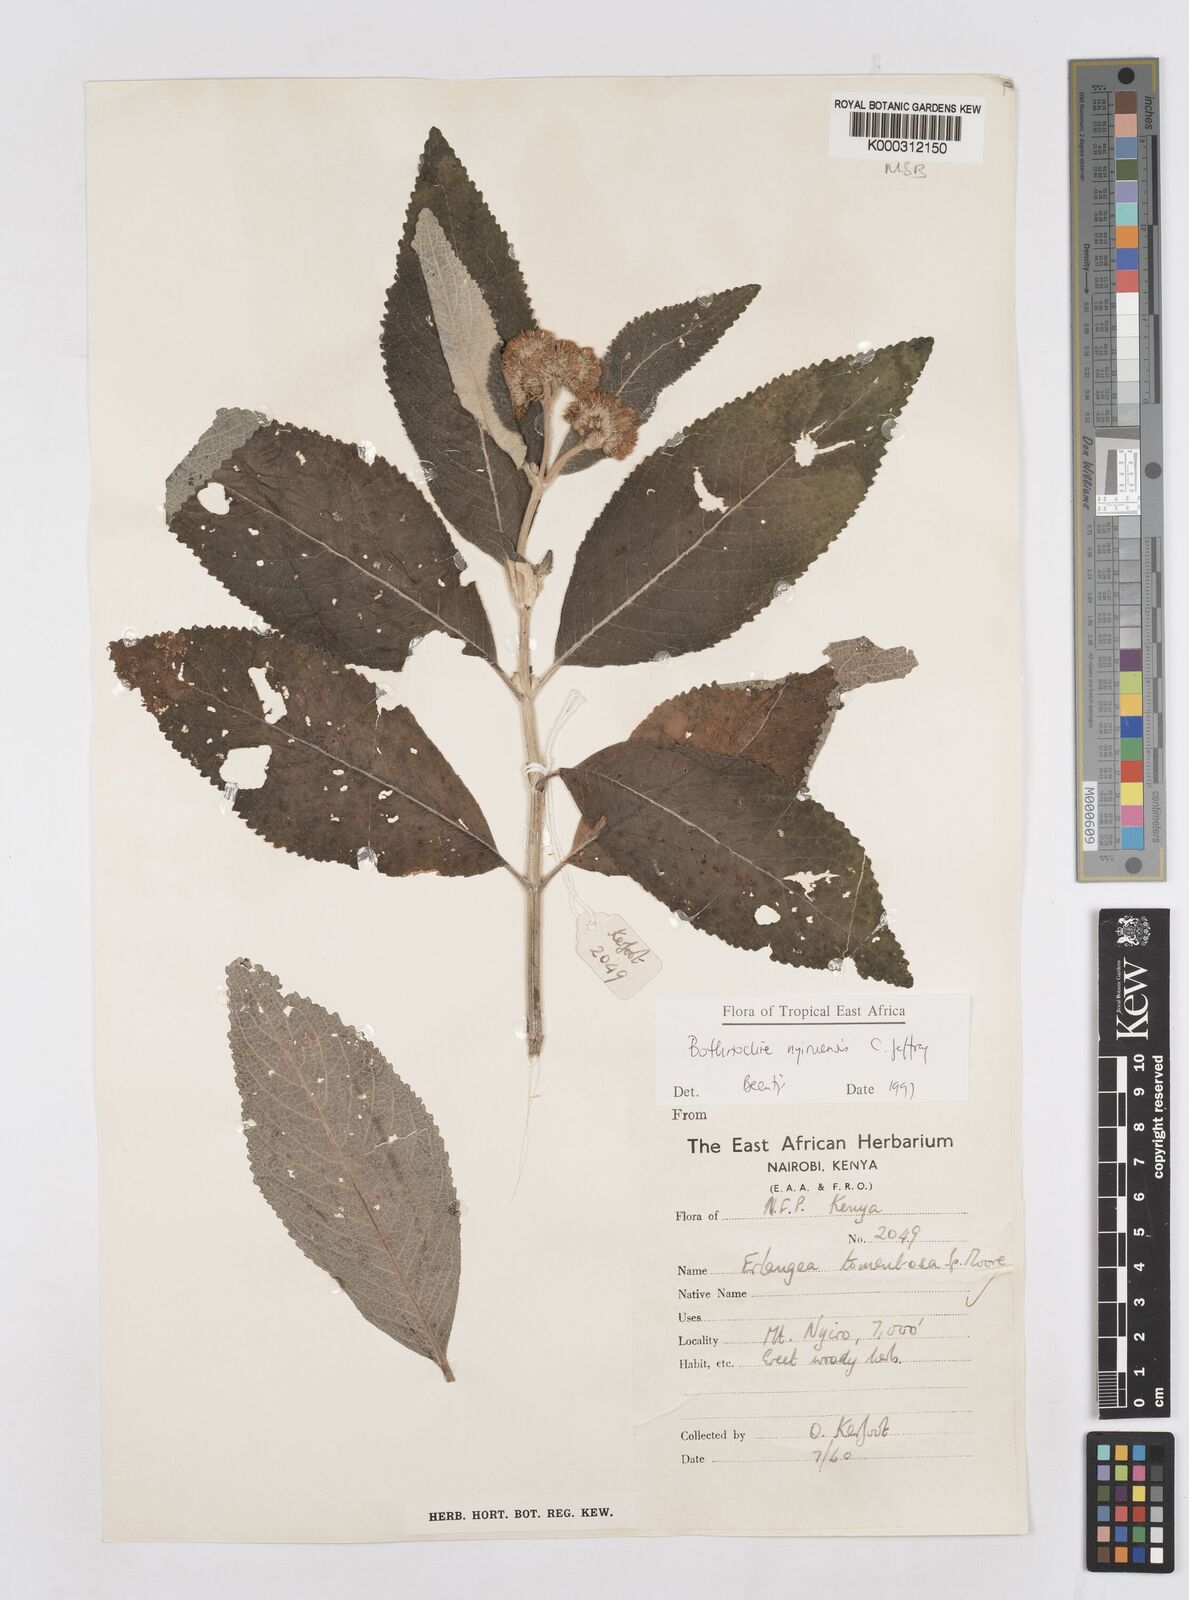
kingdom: Plantae
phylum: Tracheophyta
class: Magnoliopsida
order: Asterales
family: Asteraceae
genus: Bothriocline
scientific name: Bothriocline nyiruensis
